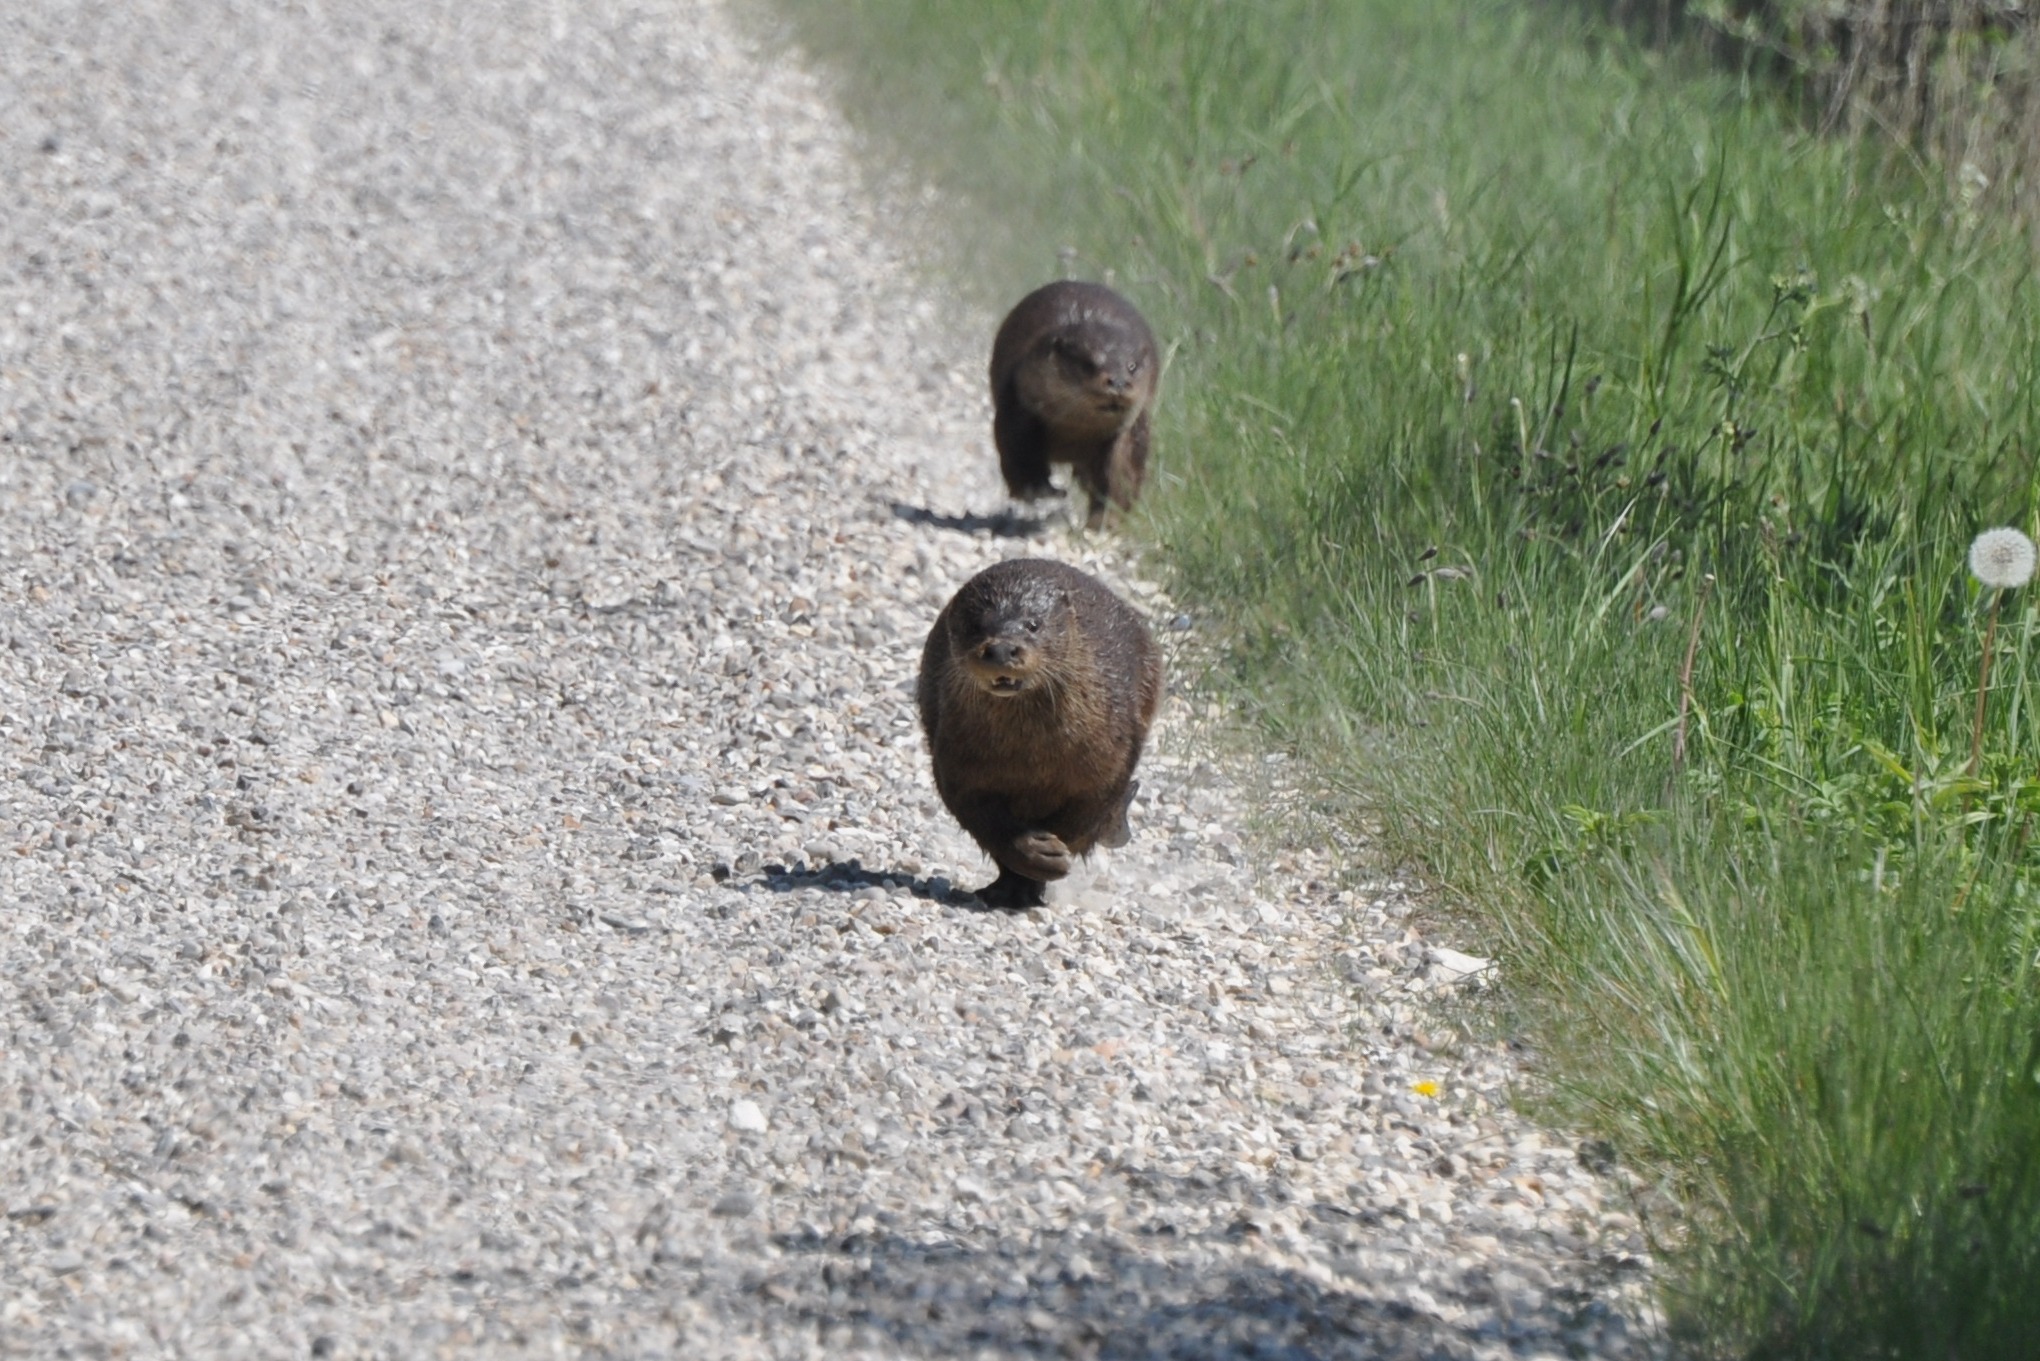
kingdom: Animalia
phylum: Chordata
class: Mammalia
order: Carnivora
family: Mustelidae
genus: Lutra
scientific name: Lutra lutra
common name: Odder
